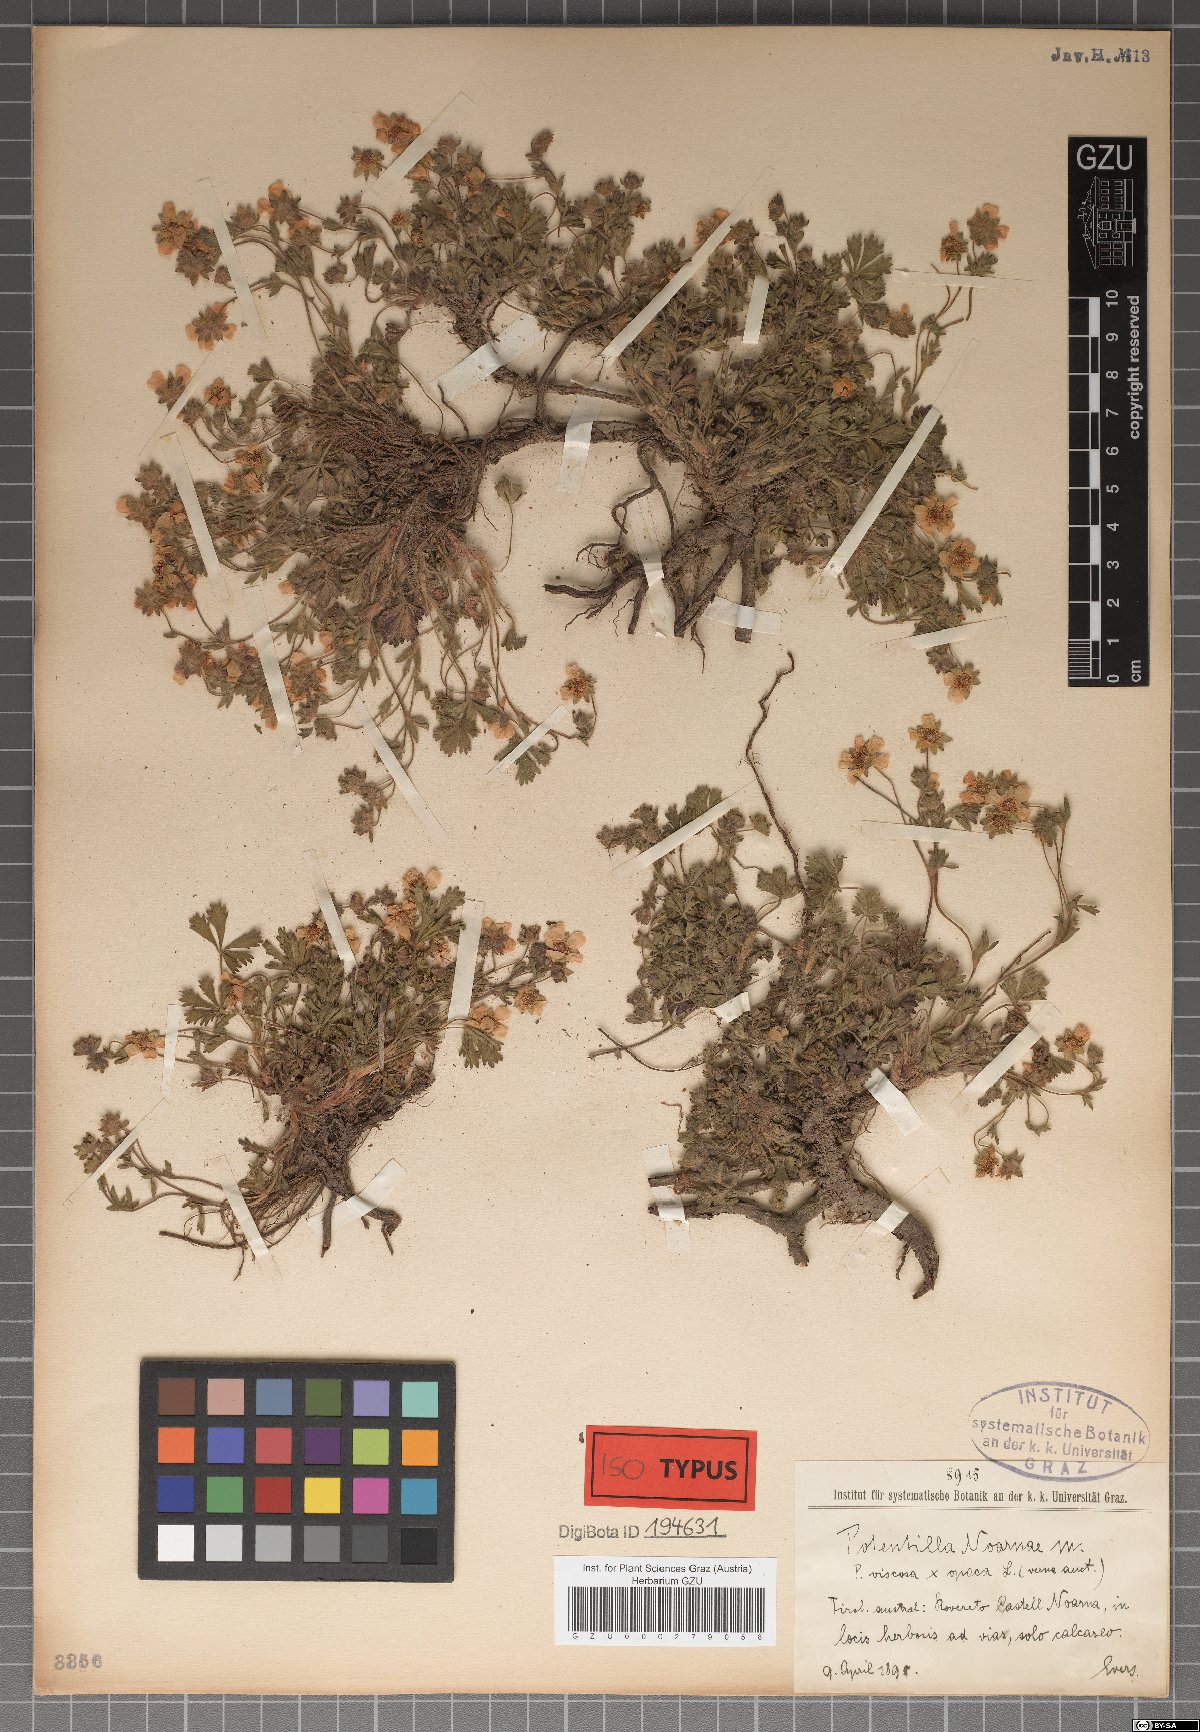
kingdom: Plantae
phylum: Tracheophyta
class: Magnoliopsida
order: Rosales
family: Rosaceae
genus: Potentilla
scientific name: Potentilla pusilla
